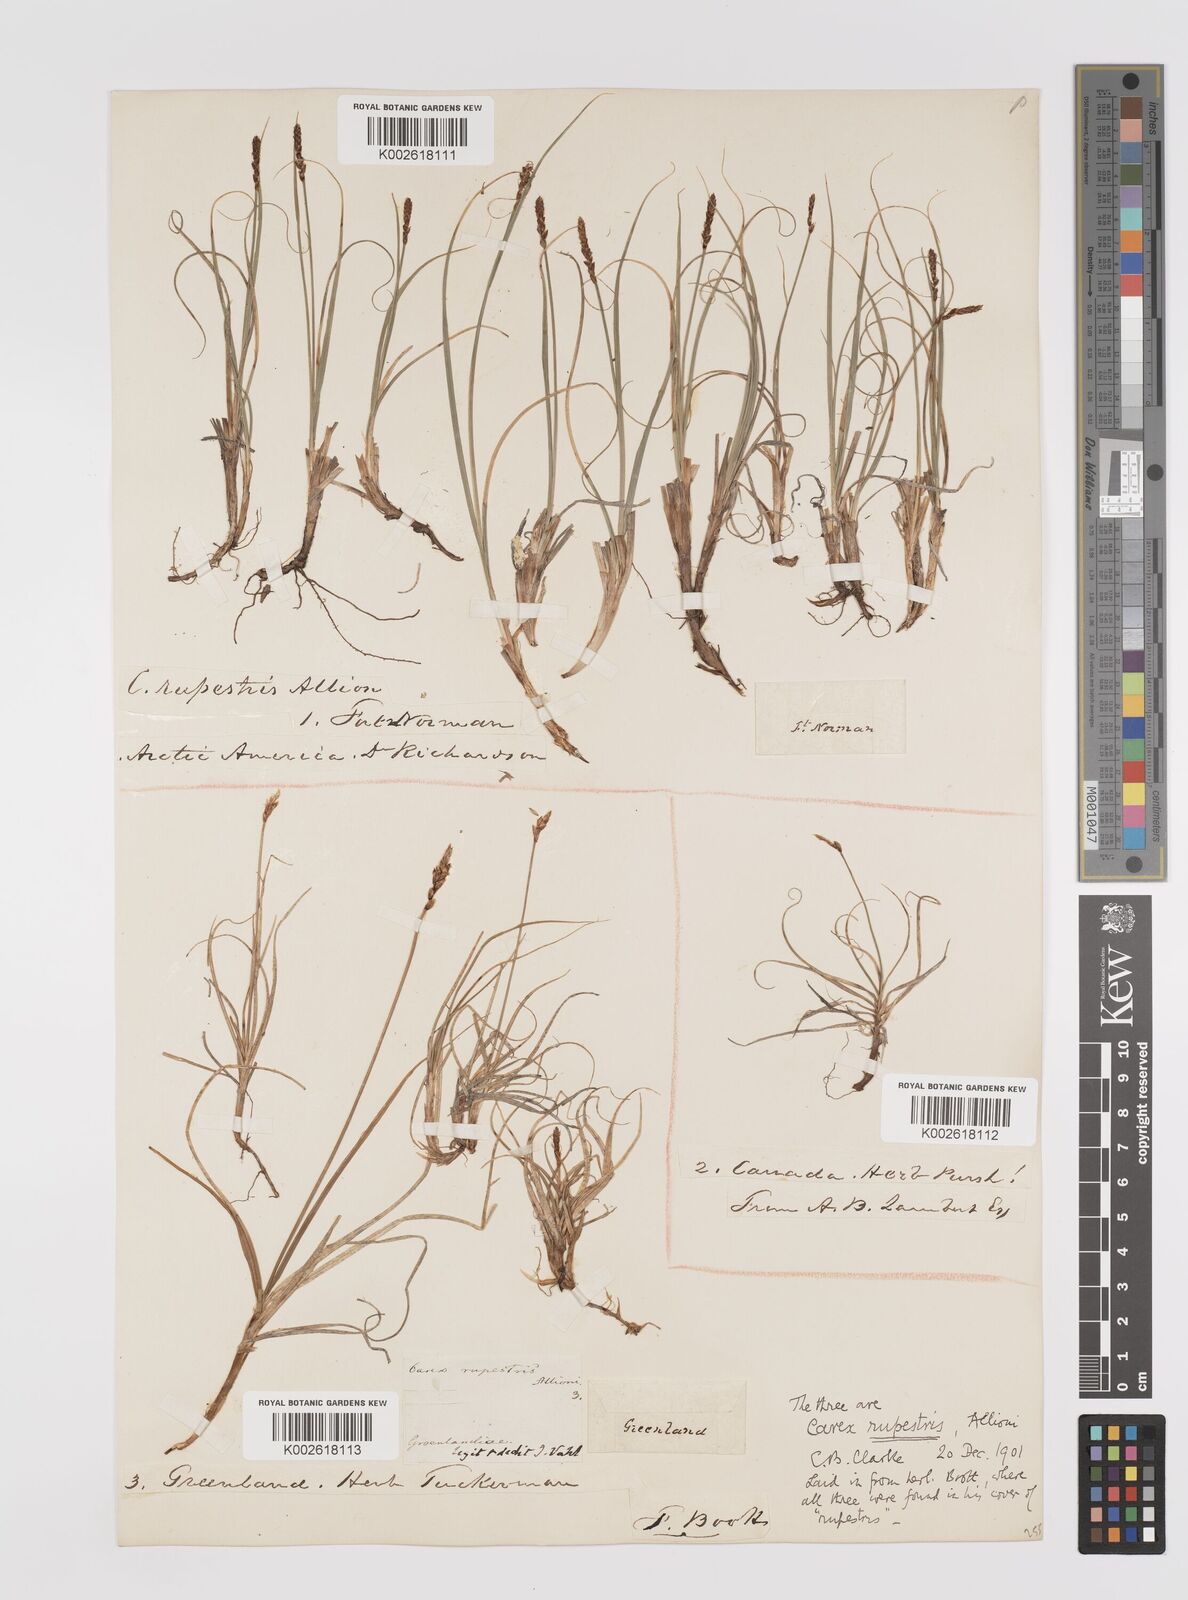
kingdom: Plantae
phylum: Tracheophyta
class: Liliopsida
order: Poales
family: Cyperaceae
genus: Carex
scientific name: Carex rupestris
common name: Rock sedge
